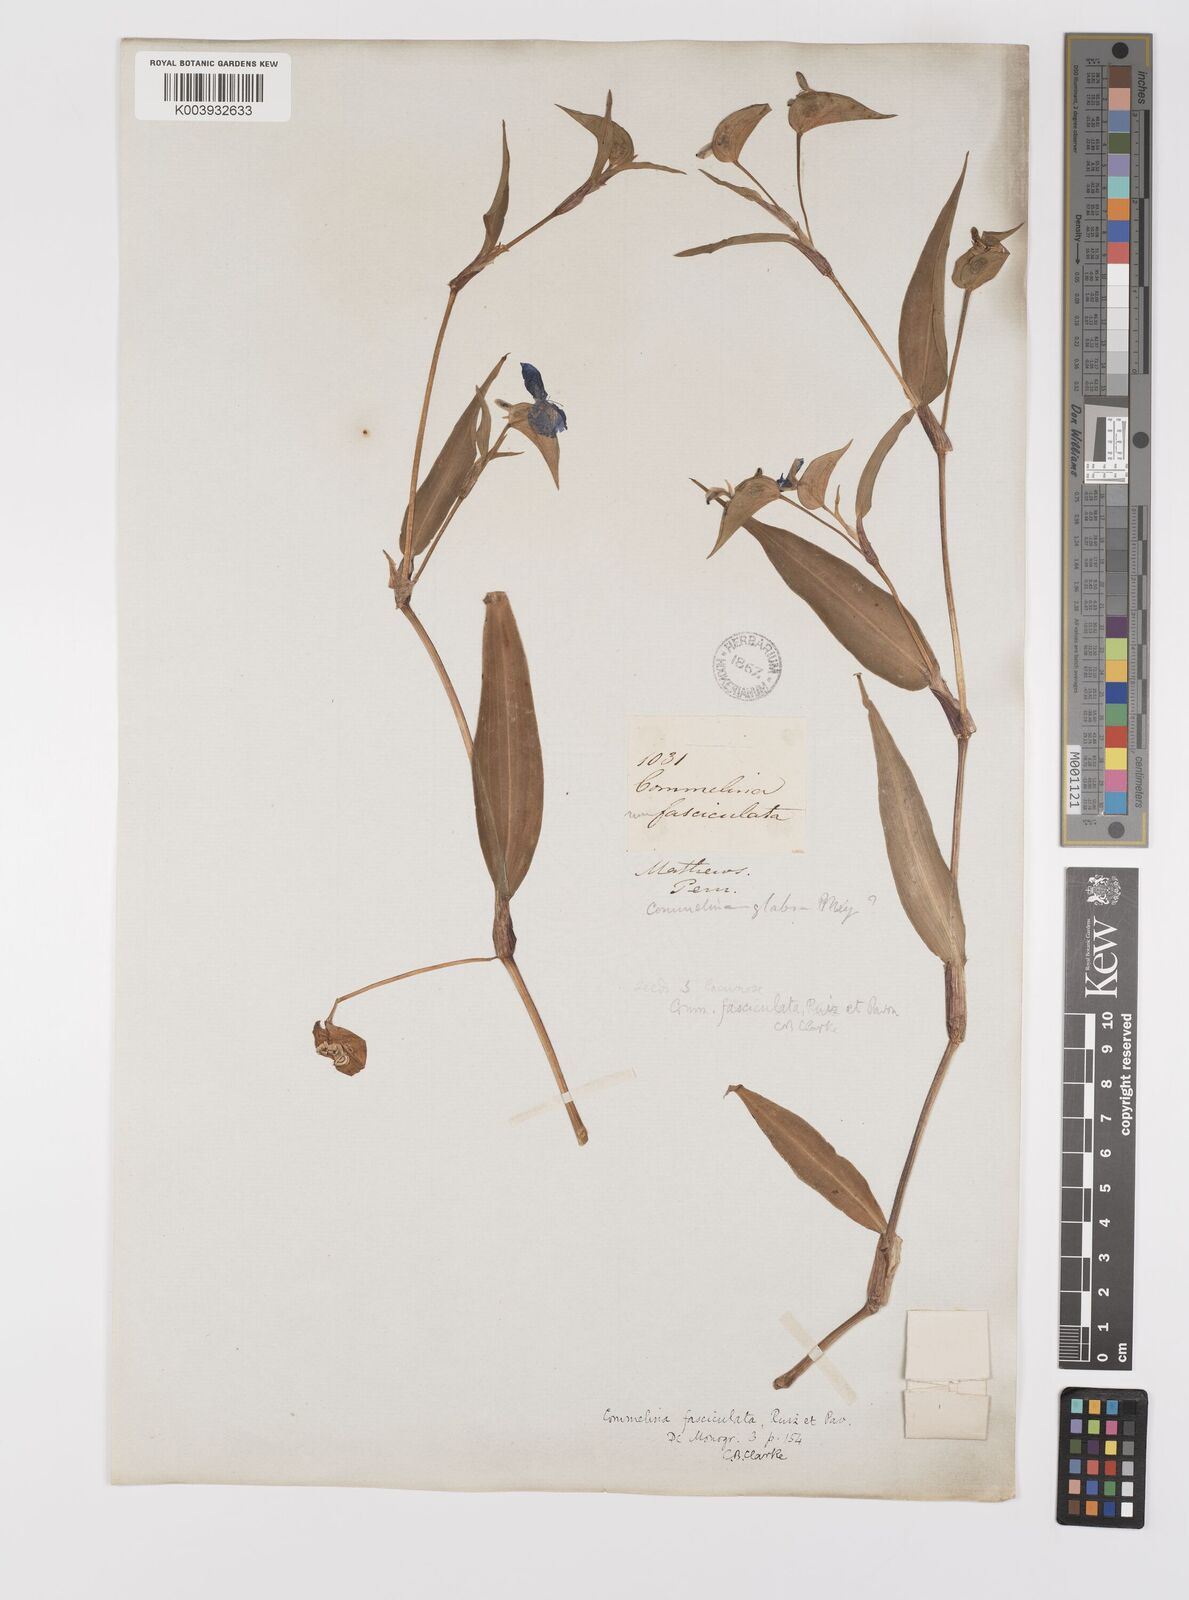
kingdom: Plantae
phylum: Tracheophyta
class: Liliopsida
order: Commelinales
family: Commelinaceae
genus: Commelina
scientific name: Commelina tuberosa
